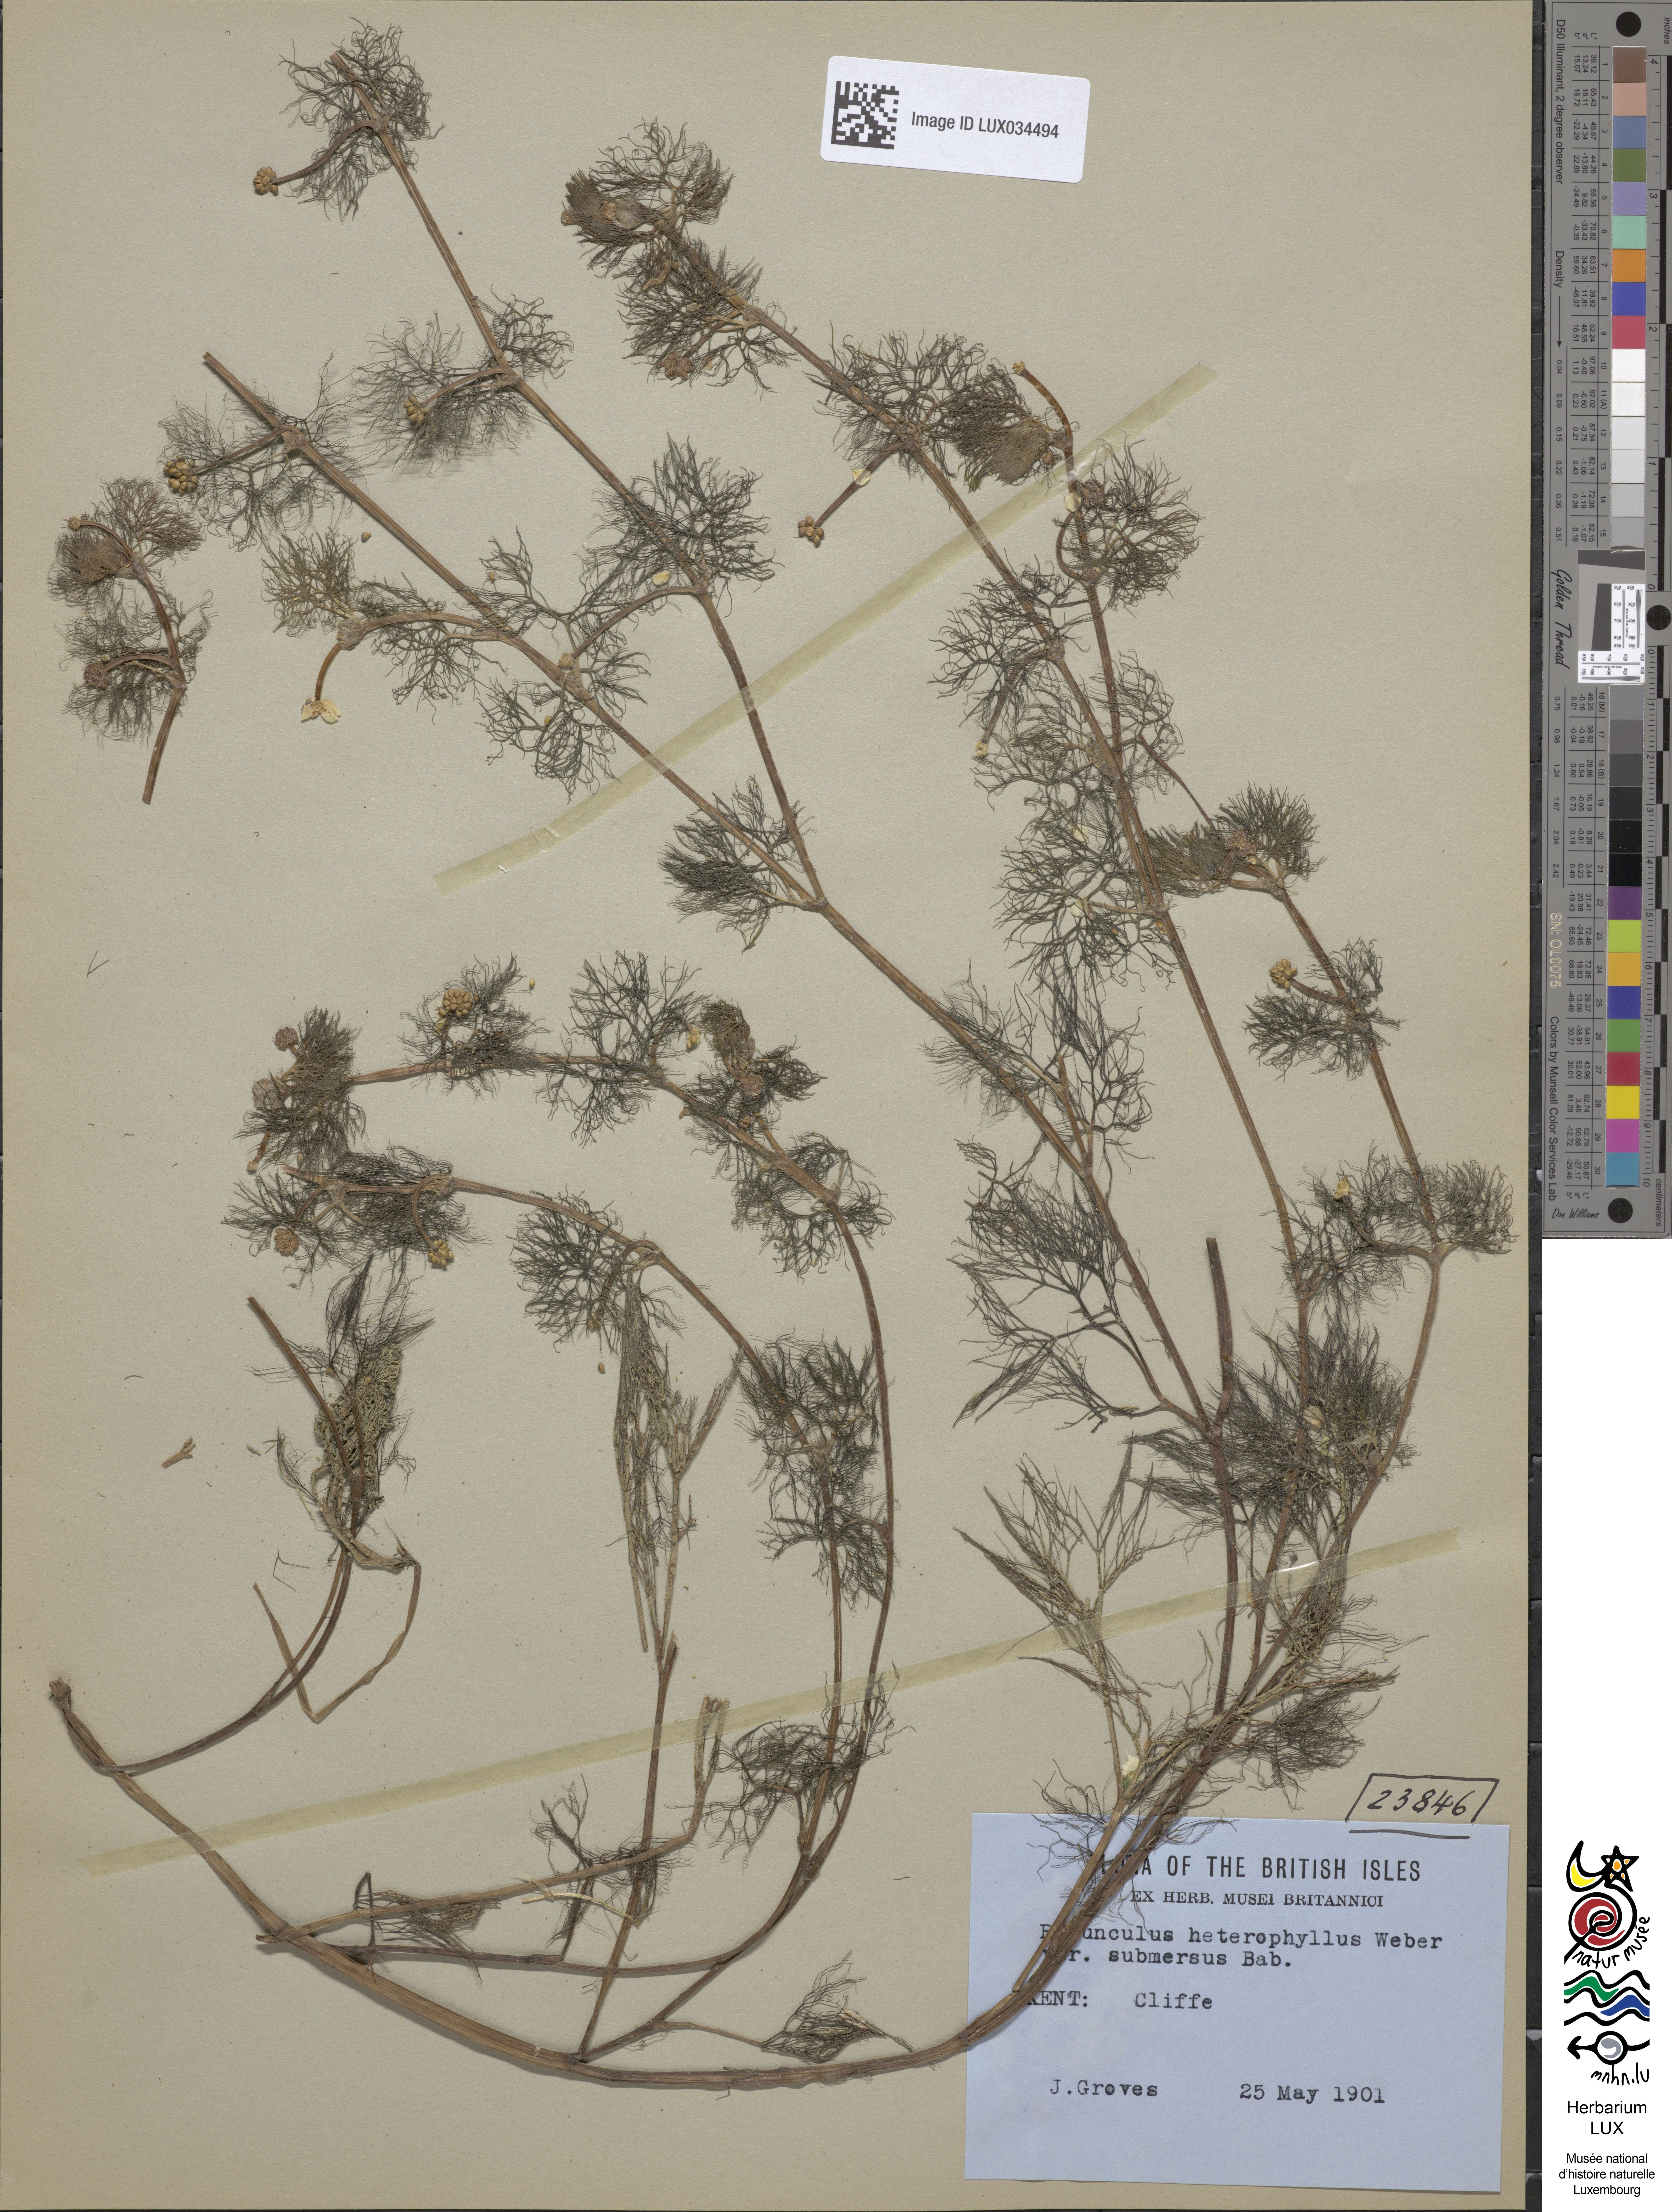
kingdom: Plantae
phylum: Tracheophyta
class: Magnoliopsida
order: Ranunculales
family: Ranunculaceae
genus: Ranunculus
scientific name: Ranunculus aquatilis
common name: Common water-crowfoot
